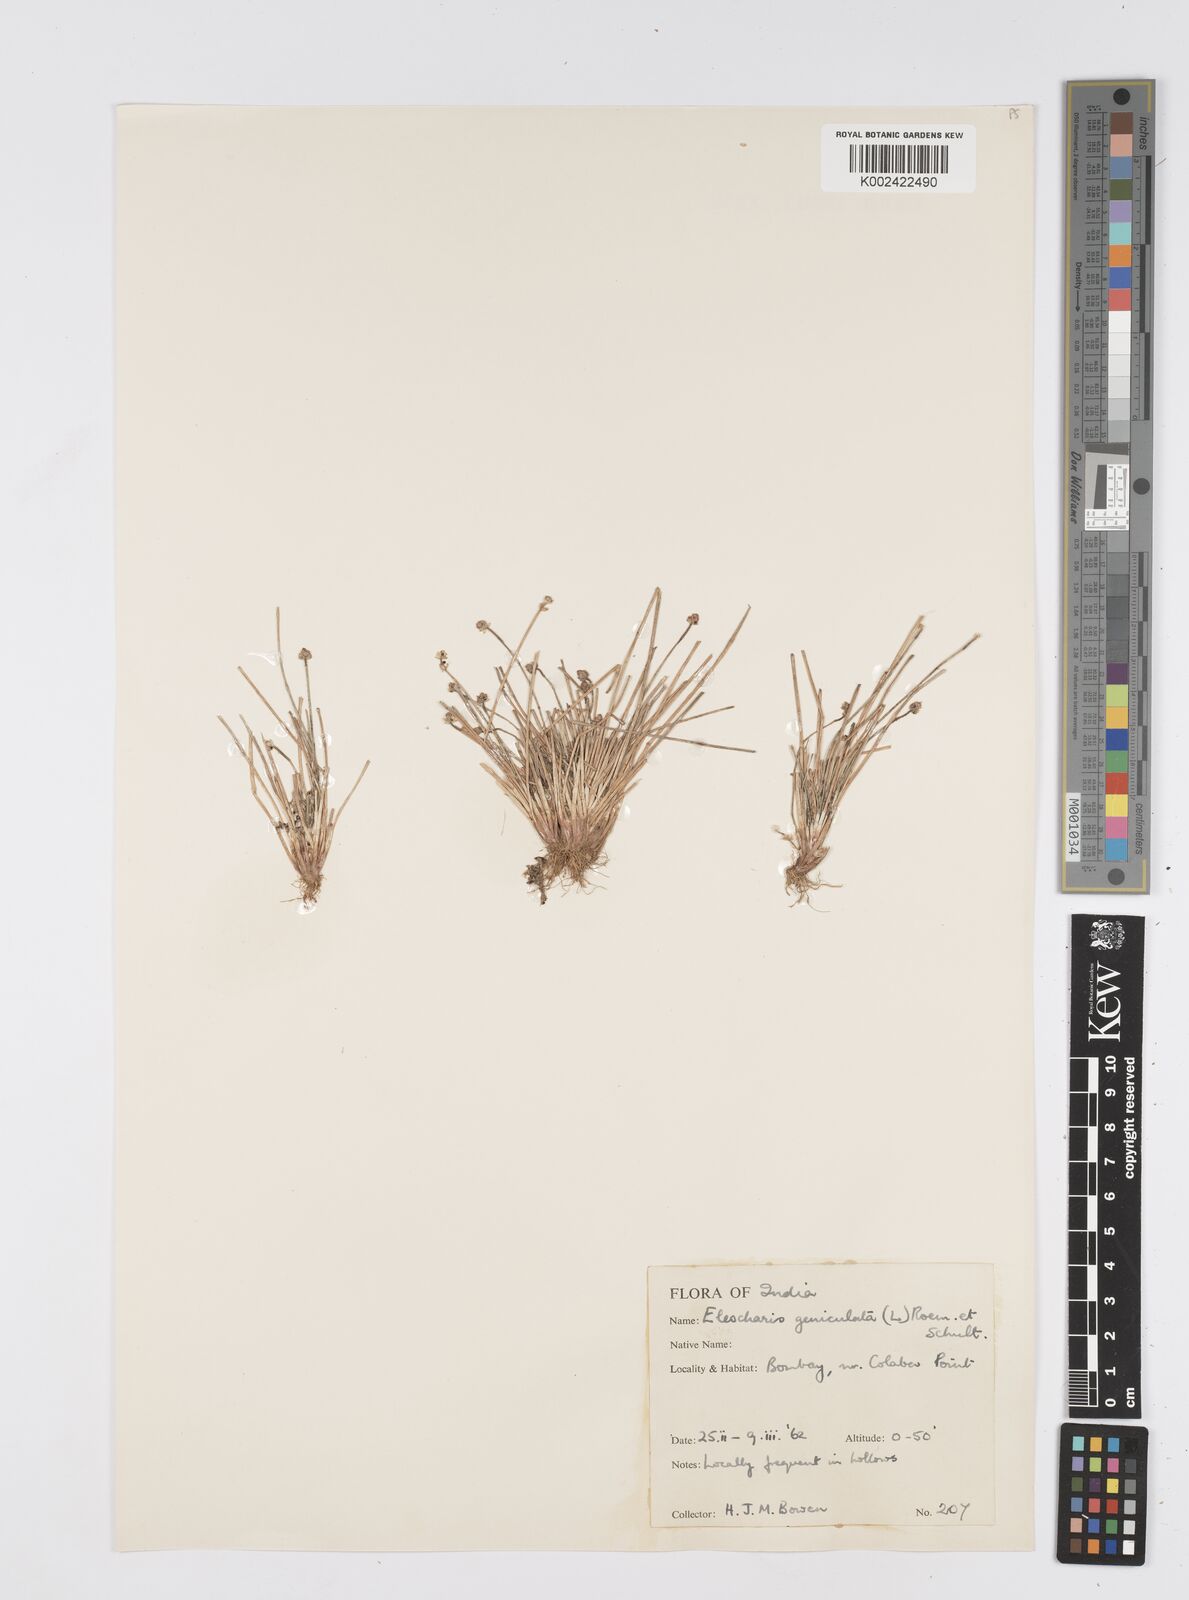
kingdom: Plantae
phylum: Tracheophyta
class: Liliopsida
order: Poales
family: Cyperaceae
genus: Eleocharis
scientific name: Eleocharis geniculata
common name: Canada spikesedge
